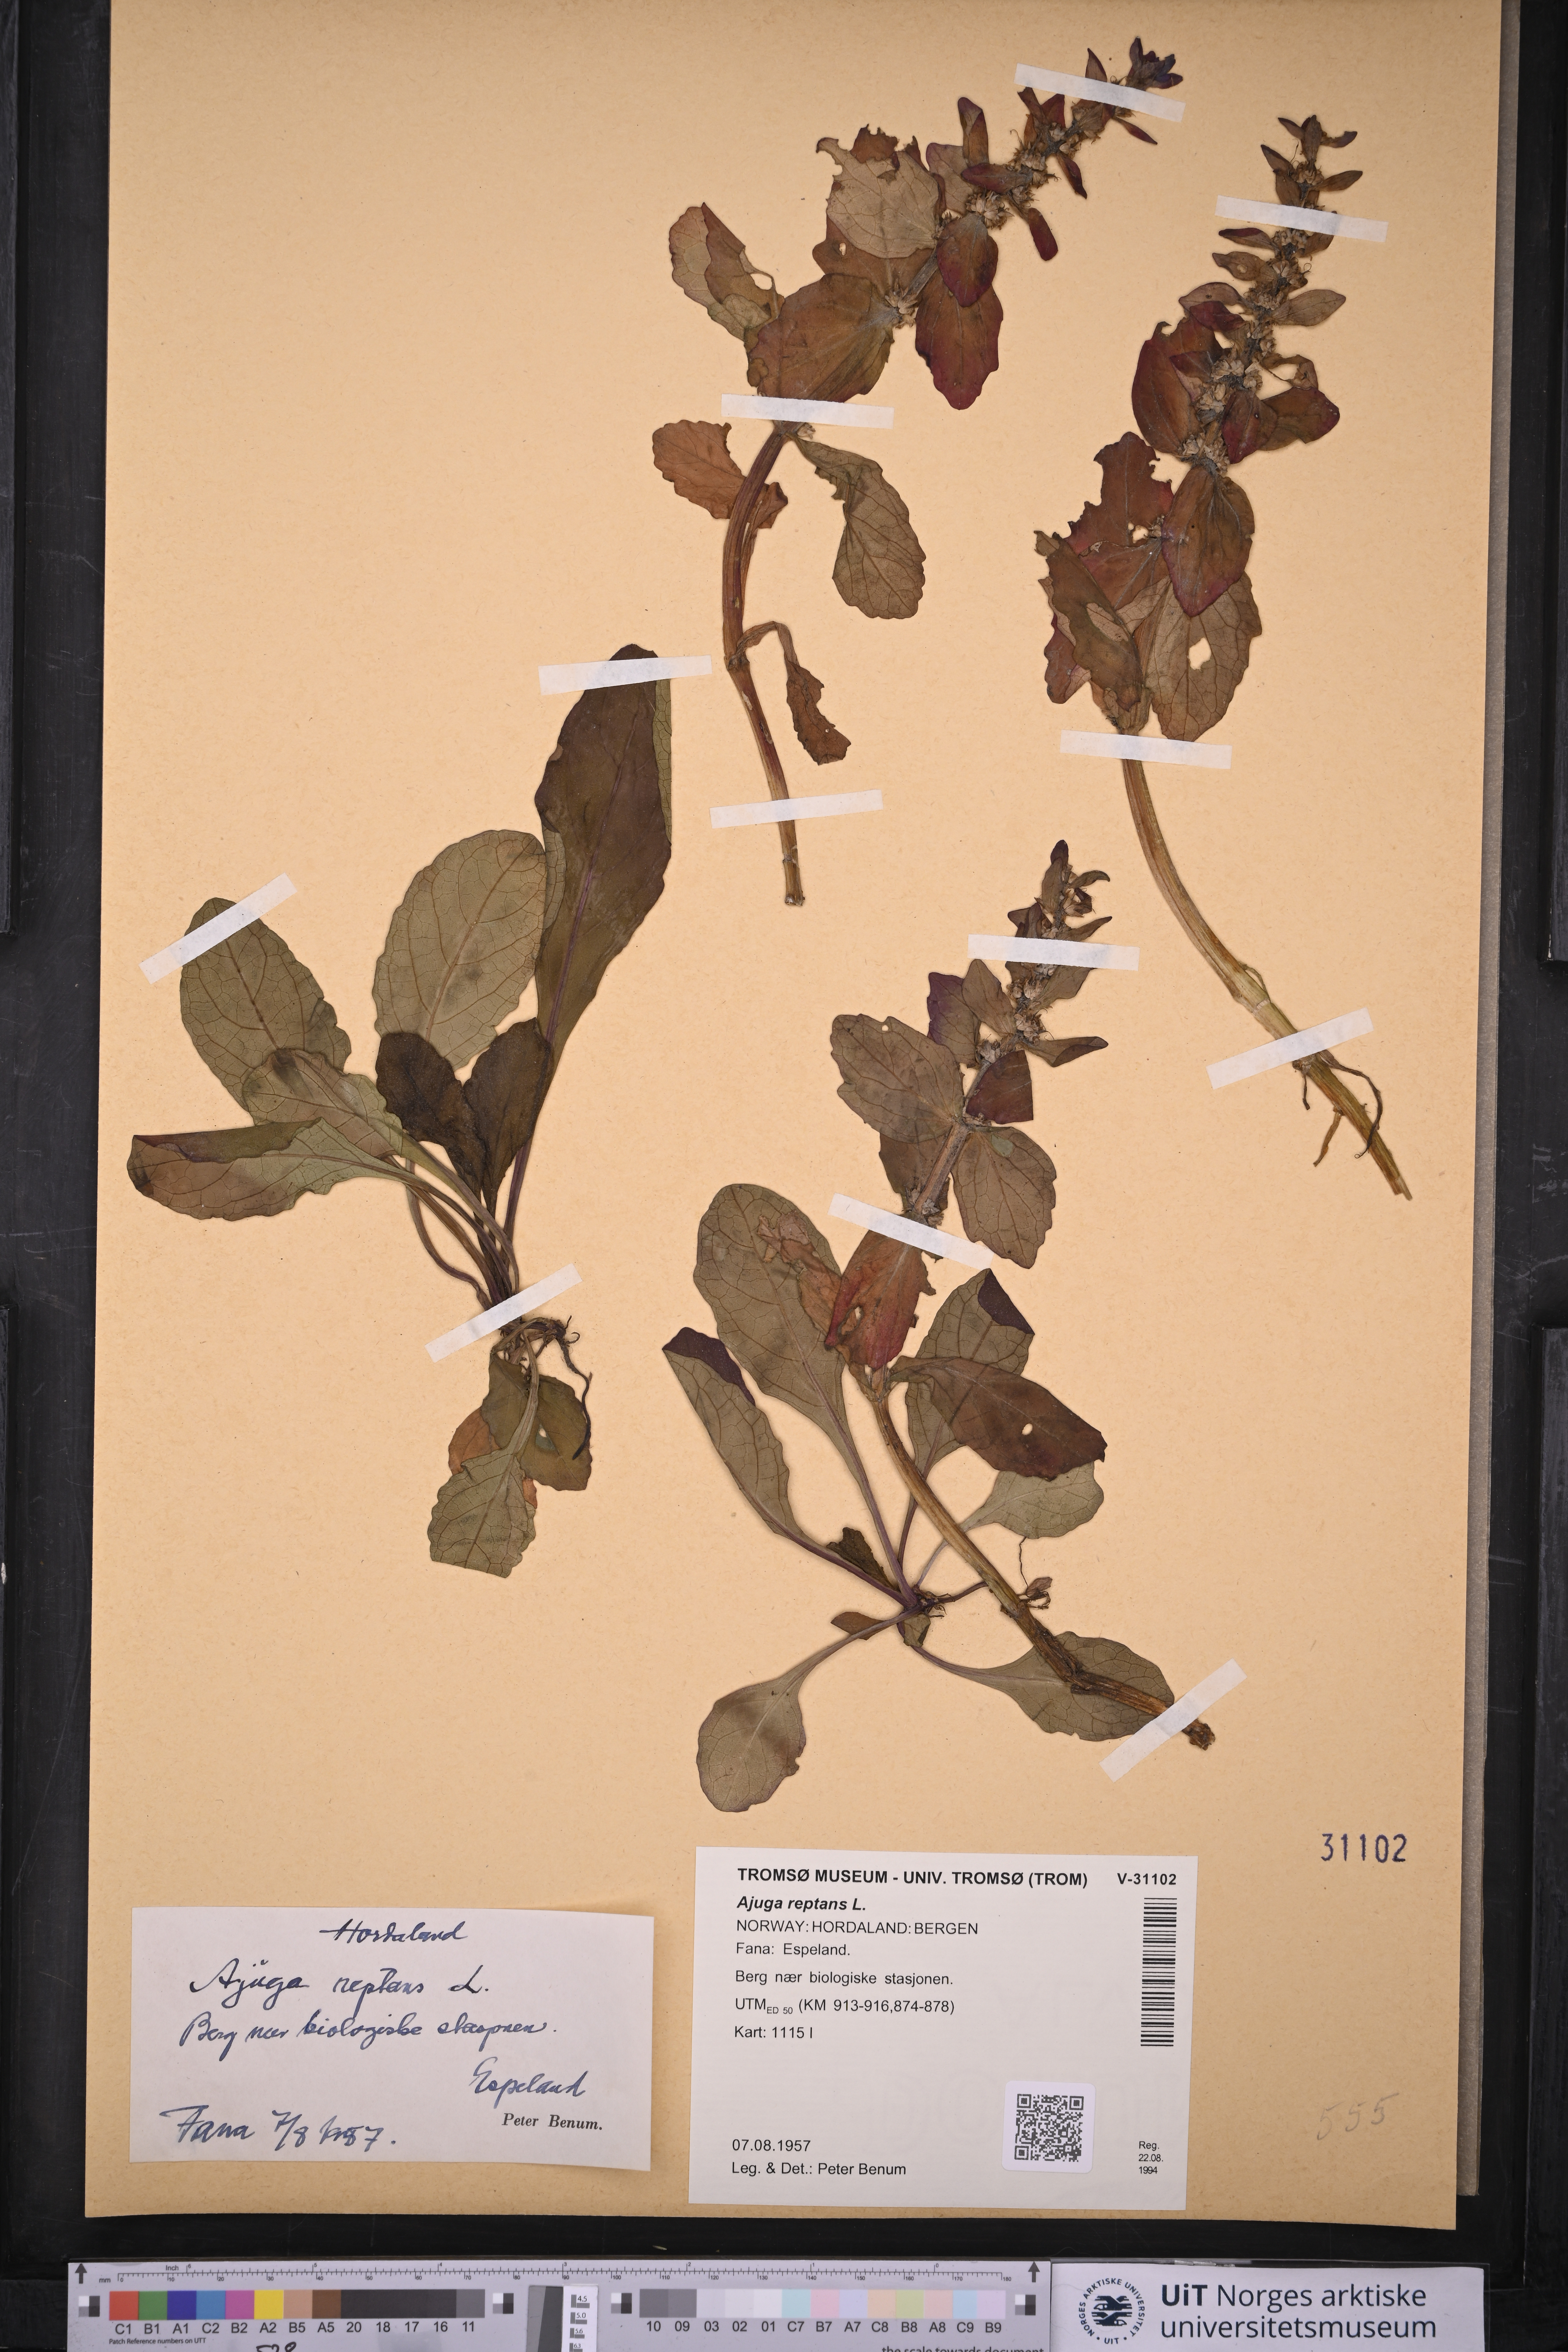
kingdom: Plantae
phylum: Tracheophyta
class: Magnoliopsida
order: Lamiales
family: Lamiaceae
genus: Ajuga
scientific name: Ajuga reptans
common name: Bugle
